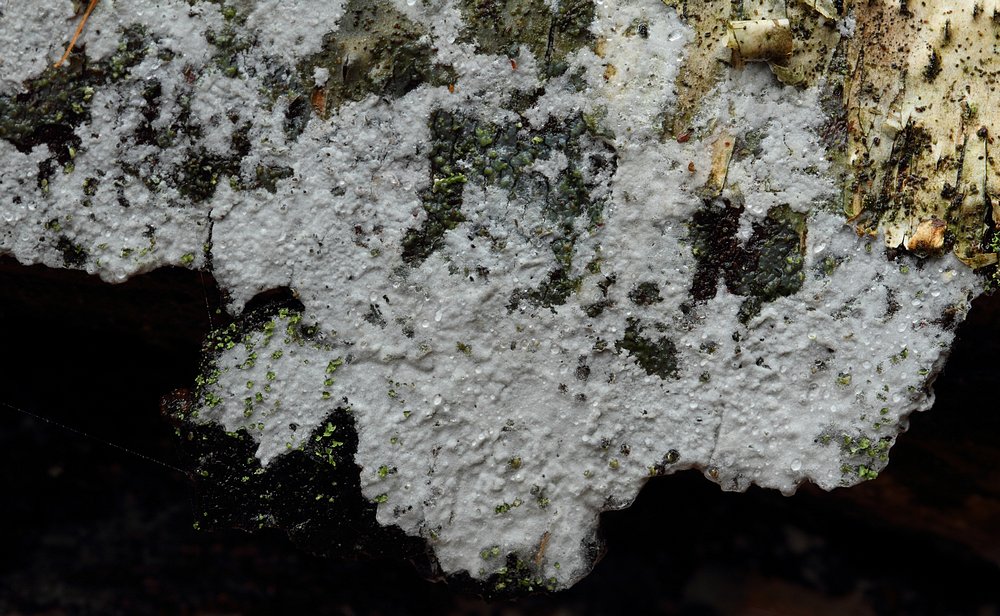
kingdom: Fungi
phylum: Basidiomycota
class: Agaricomycetes
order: Atheliales
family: Atheliaceae
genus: Athelia
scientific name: Athelia epiphylla
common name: almindelig barkhinde
